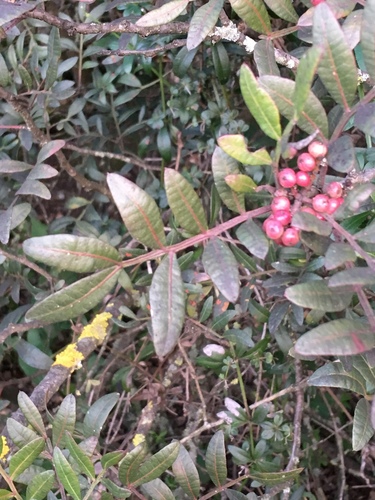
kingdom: Plantae
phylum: Tracheophyta
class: Magnoliopsida
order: Sapindales
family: Anacardiaceae
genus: Pistacia
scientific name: Pistacia lentiscus
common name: Lentisk
